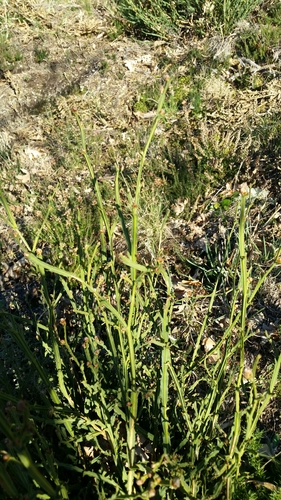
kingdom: Plantae
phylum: Tracheophyta
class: Magnoliopsida
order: Fabales
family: Fabaceae
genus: Genista
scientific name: Genista tridentata
